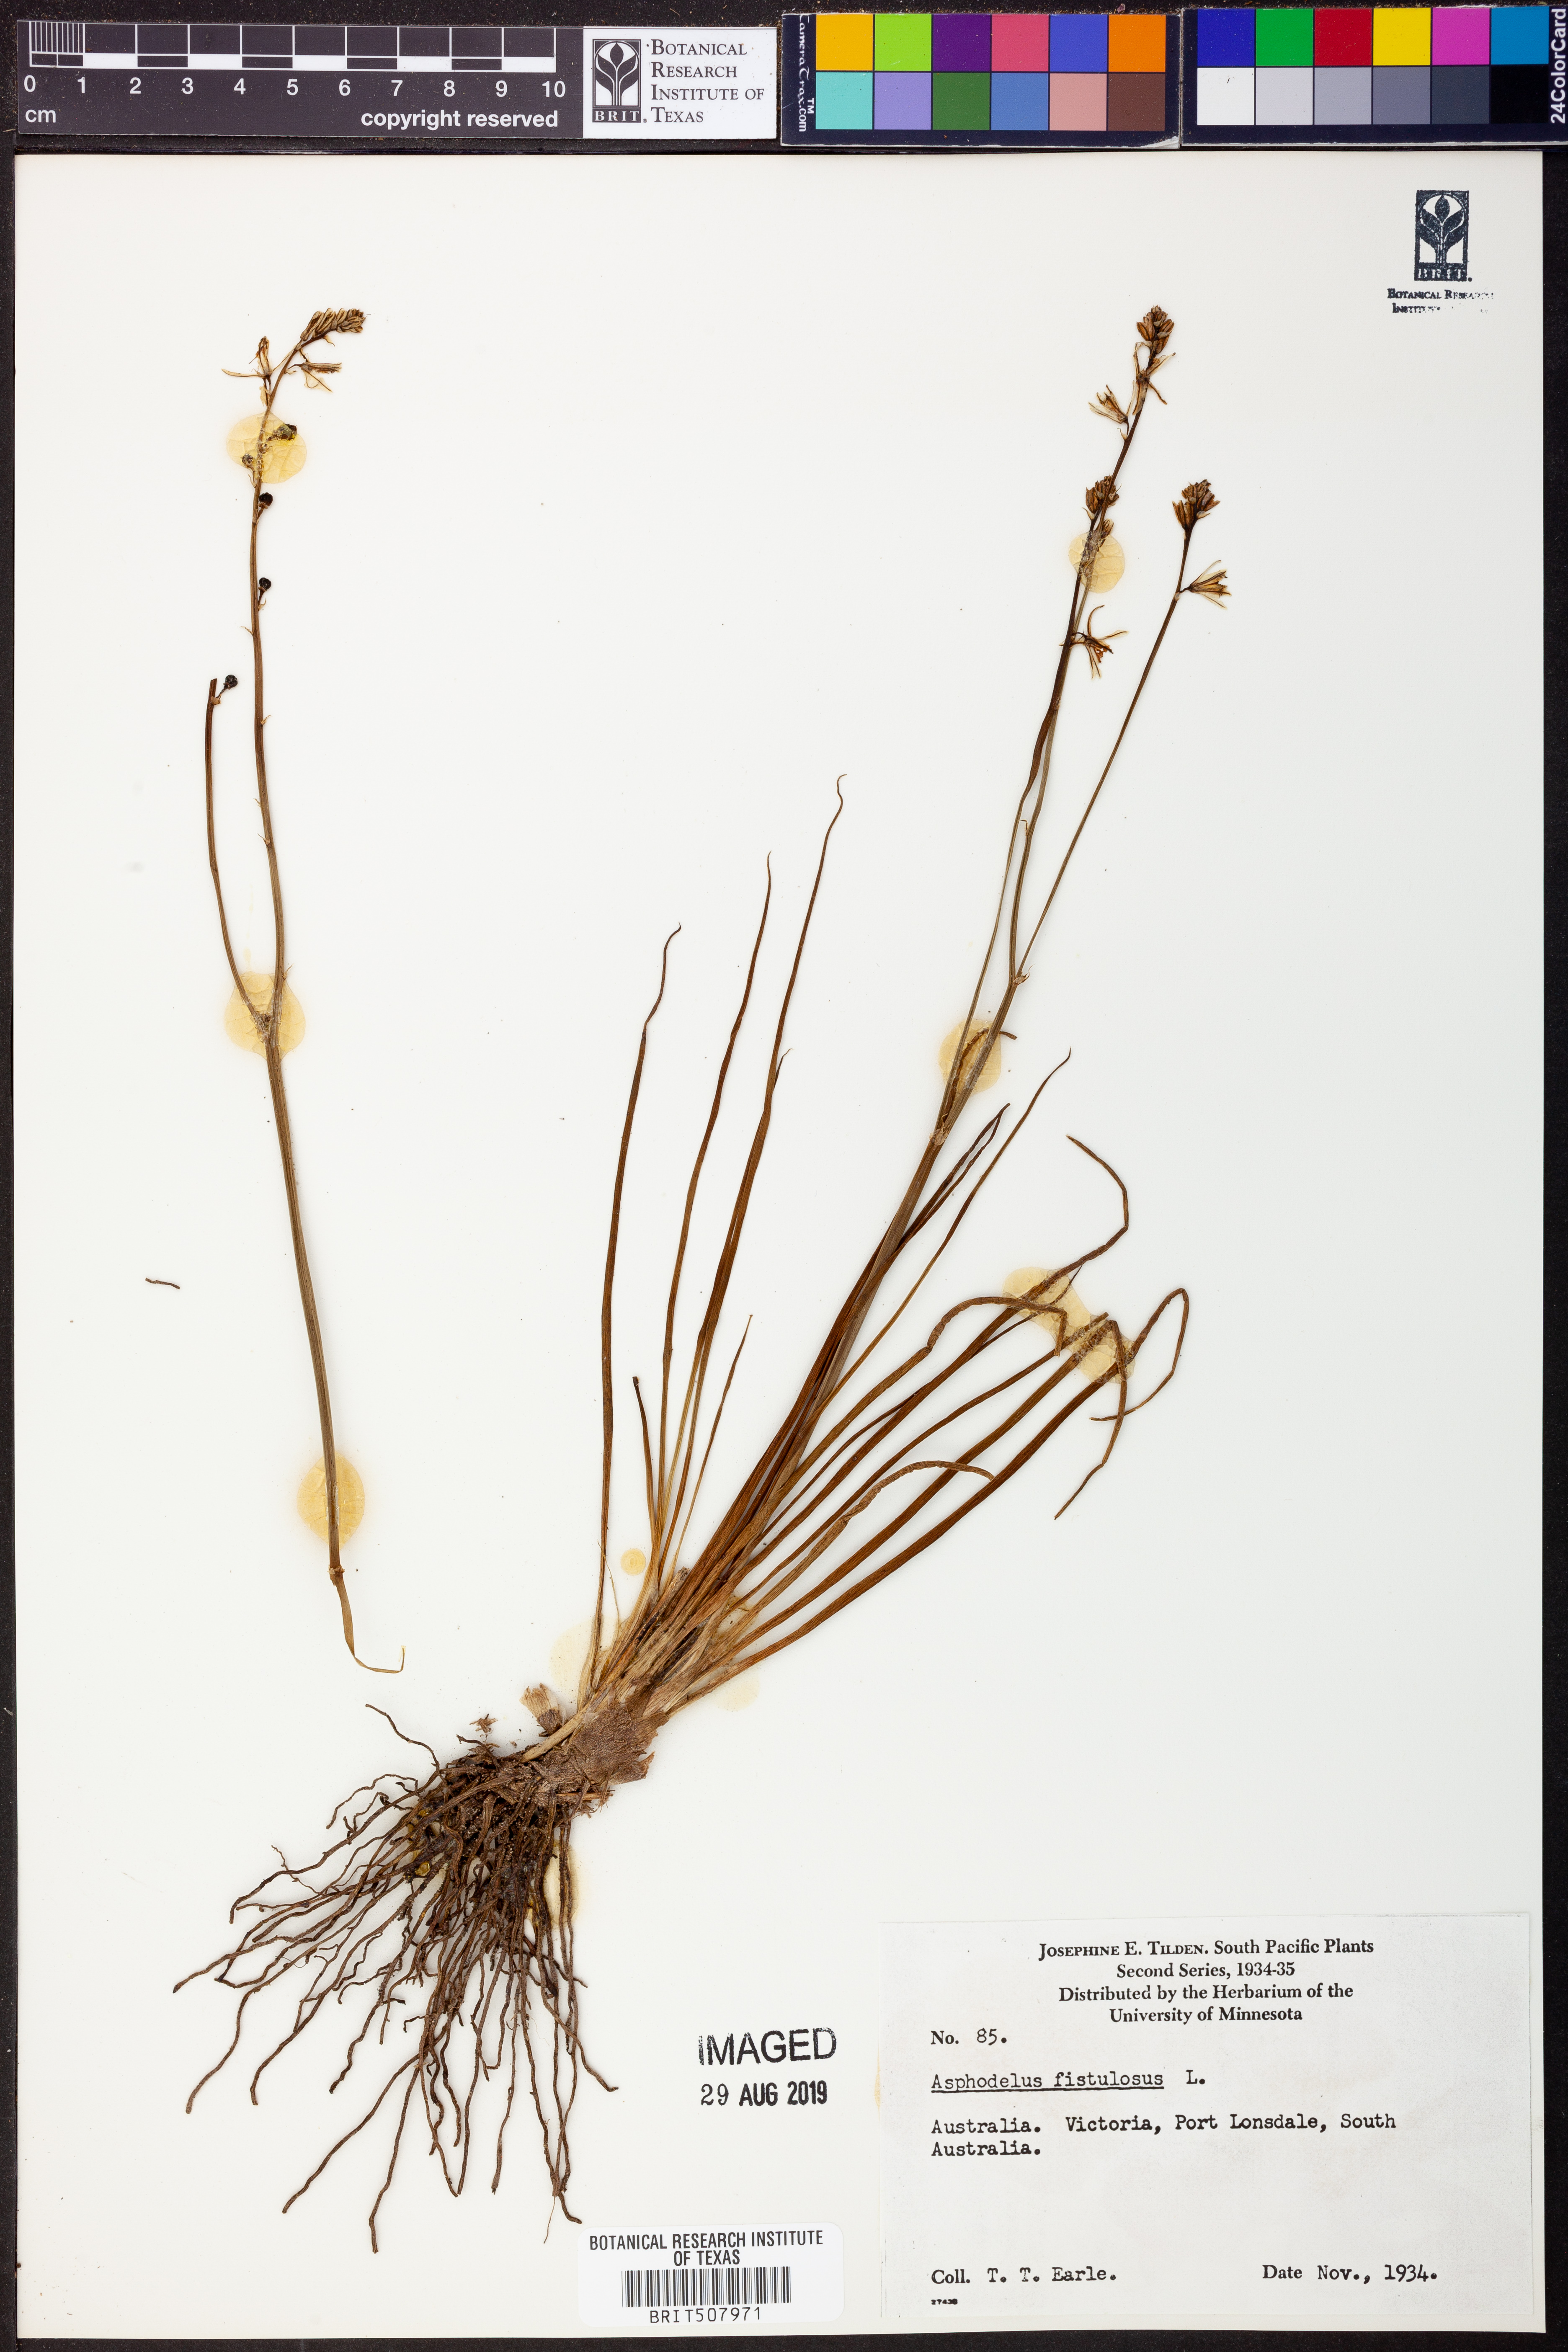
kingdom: Plantae
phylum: Tracheophyta
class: Liliopsida
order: Asparagales
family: Asphodelaceae
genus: Asphodelus
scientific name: Asphodelus fistulosus
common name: Onionweed
